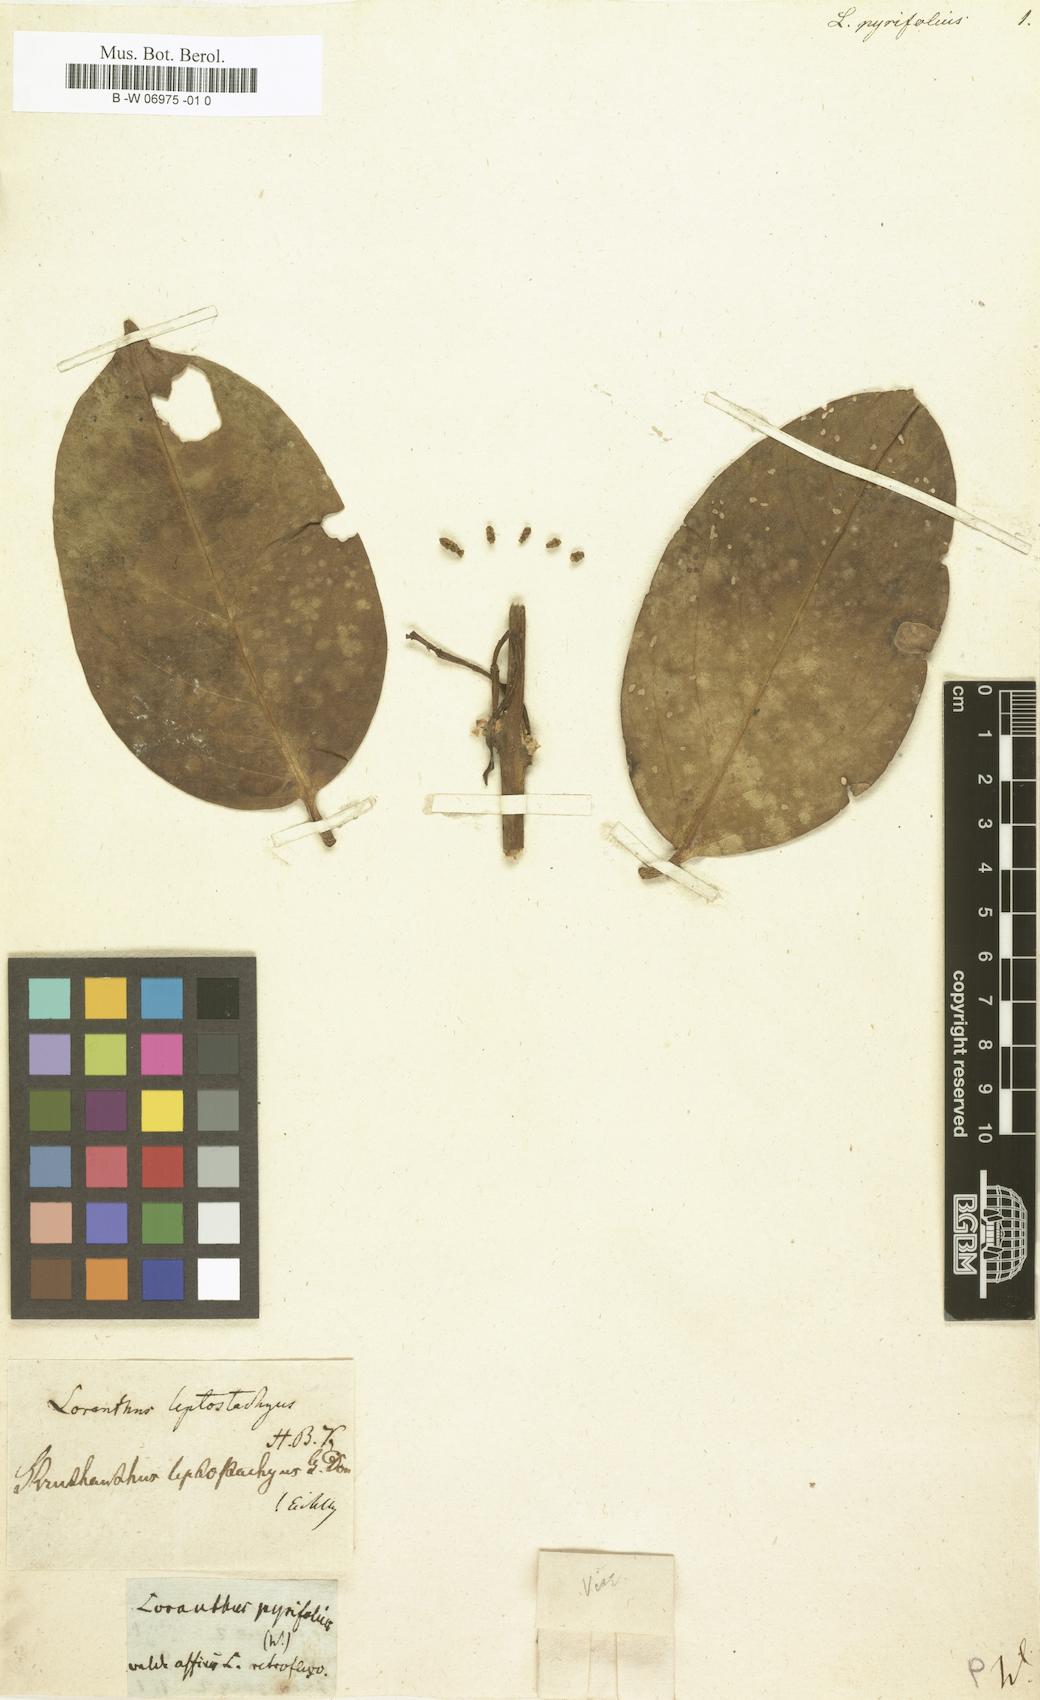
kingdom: Plantae
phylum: Tracheophyta
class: Magnoliopsida
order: Santalales
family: Loranthaceae
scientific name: Loranthaceae
